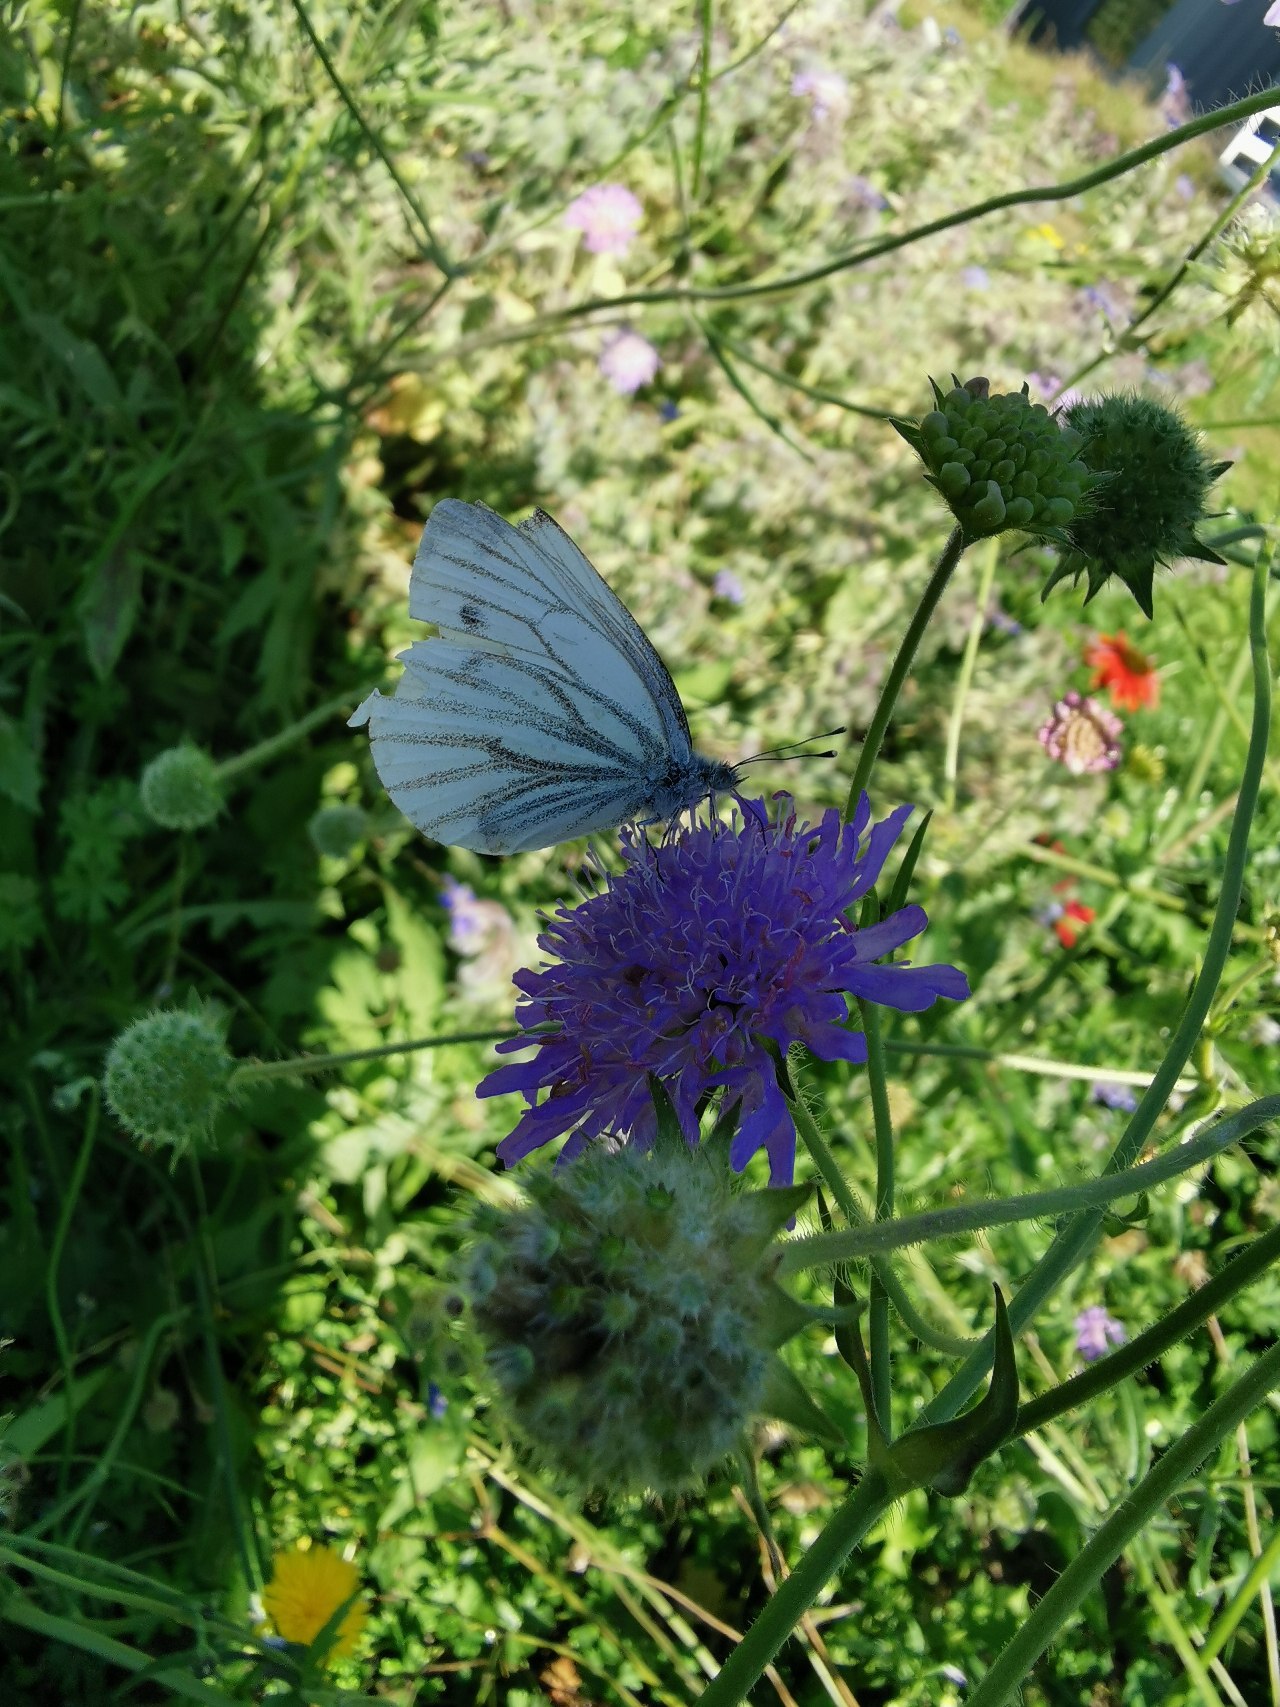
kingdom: Animalia
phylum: Arthropoda
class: Insecta
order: Lepidoptera
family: Pieridae
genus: Pieris
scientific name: Pieris napi
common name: Grønåret kålsommerfugl
